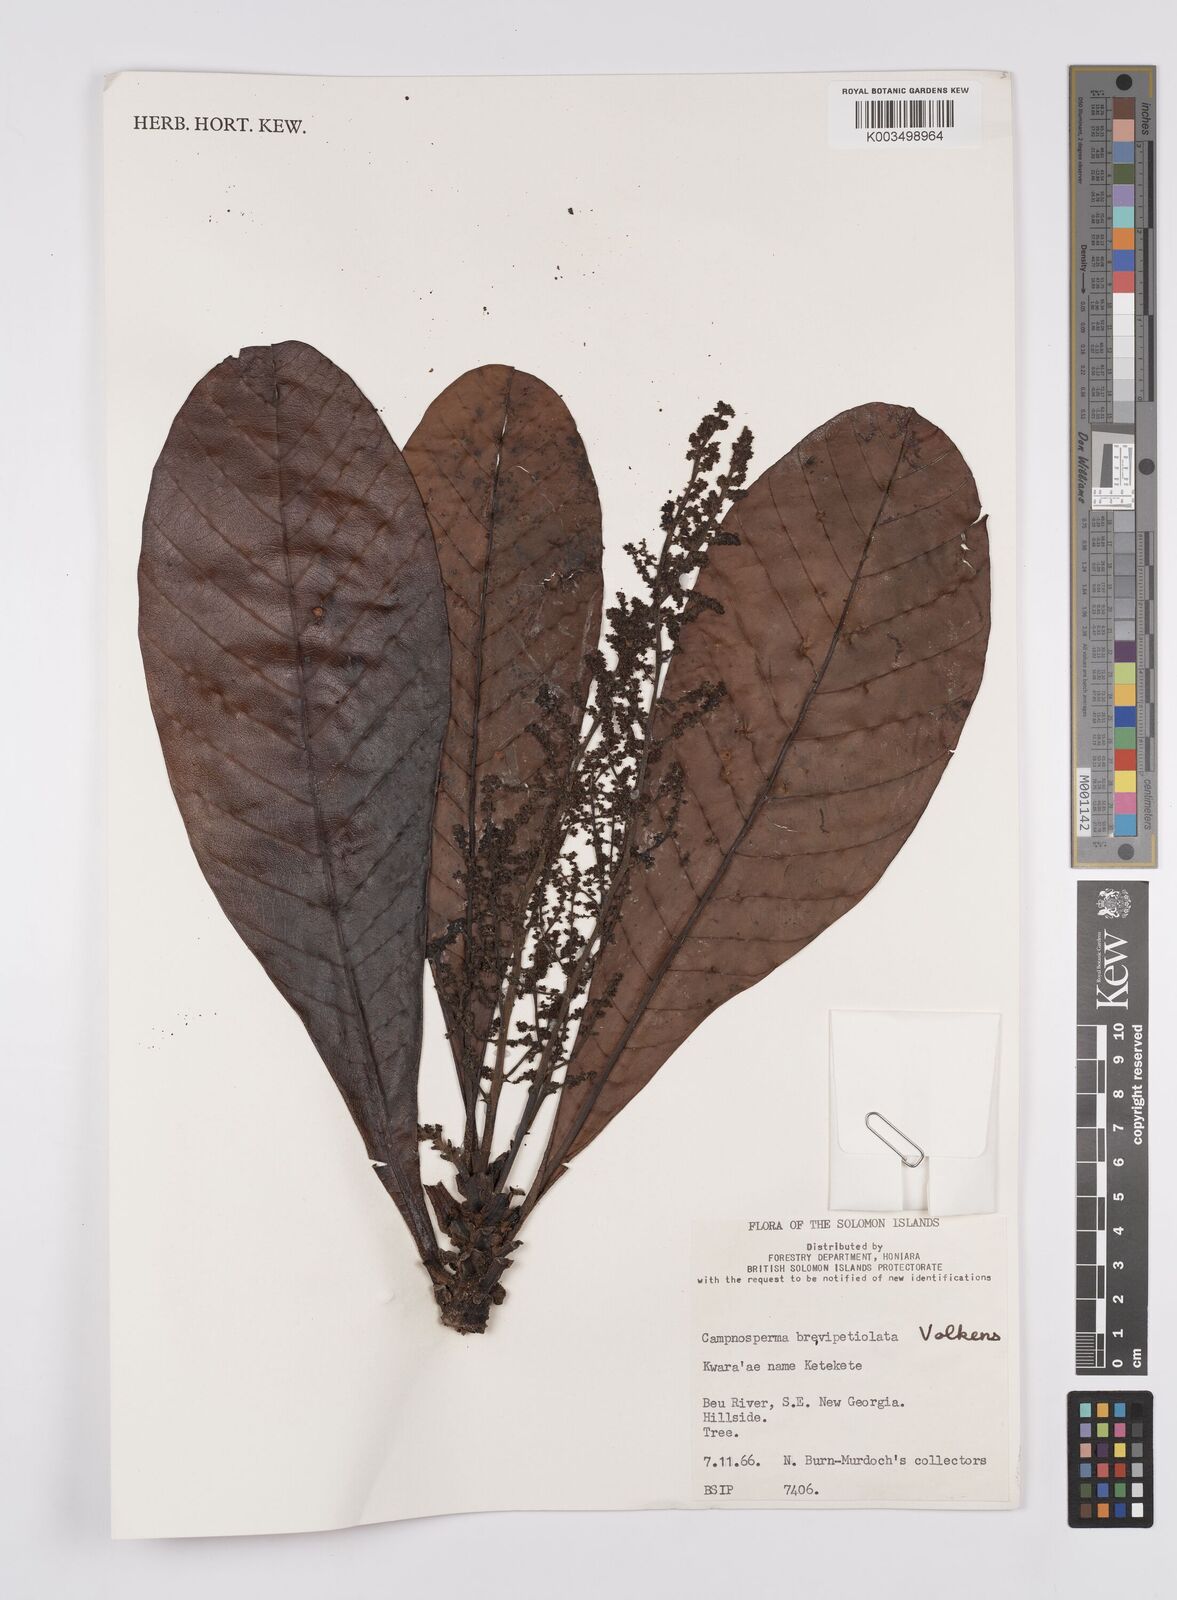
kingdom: Plantae
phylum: Tracheophyta
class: Magnoliopsida
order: Sapindales
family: Anacardiaceae
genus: Campnosperma
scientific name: Campnosperma brevipetiolatum
